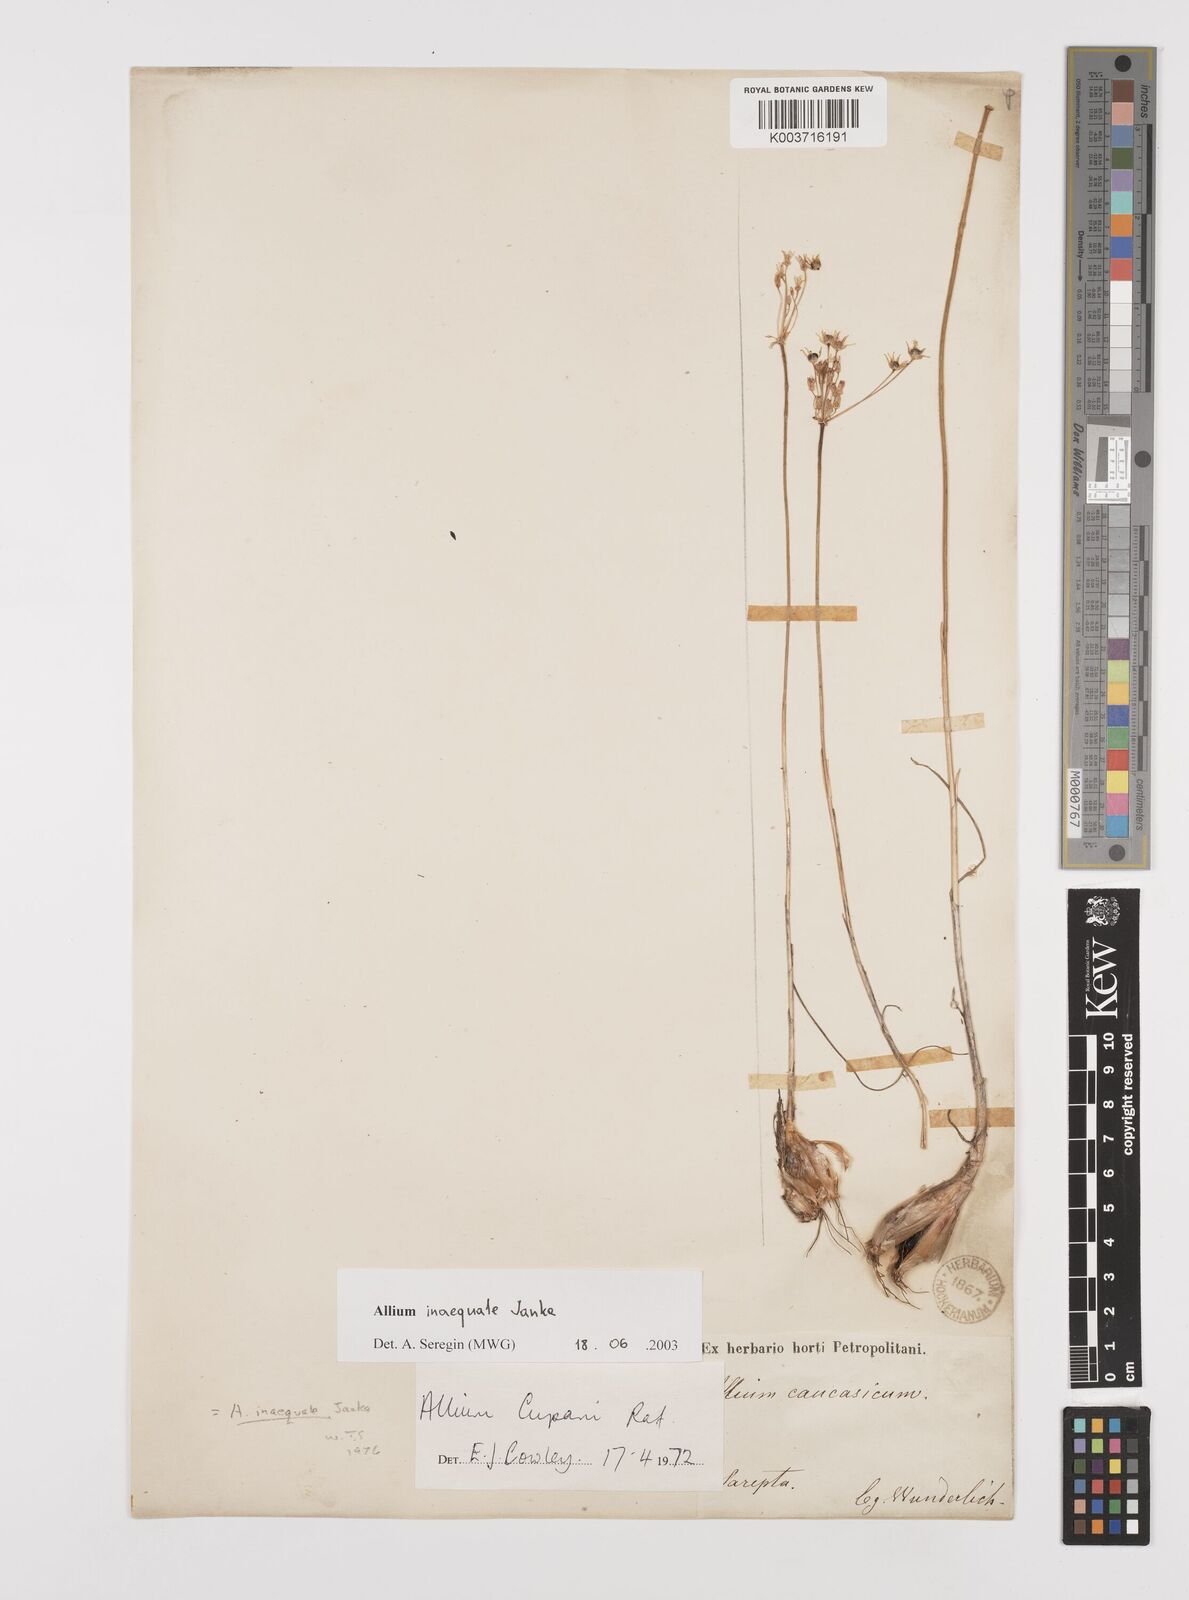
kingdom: Plantae
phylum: Tracheophyta
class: Liliopsida
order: Asparagales
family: Amaryllidaceae
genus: Allium
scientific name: Allium inaequale
